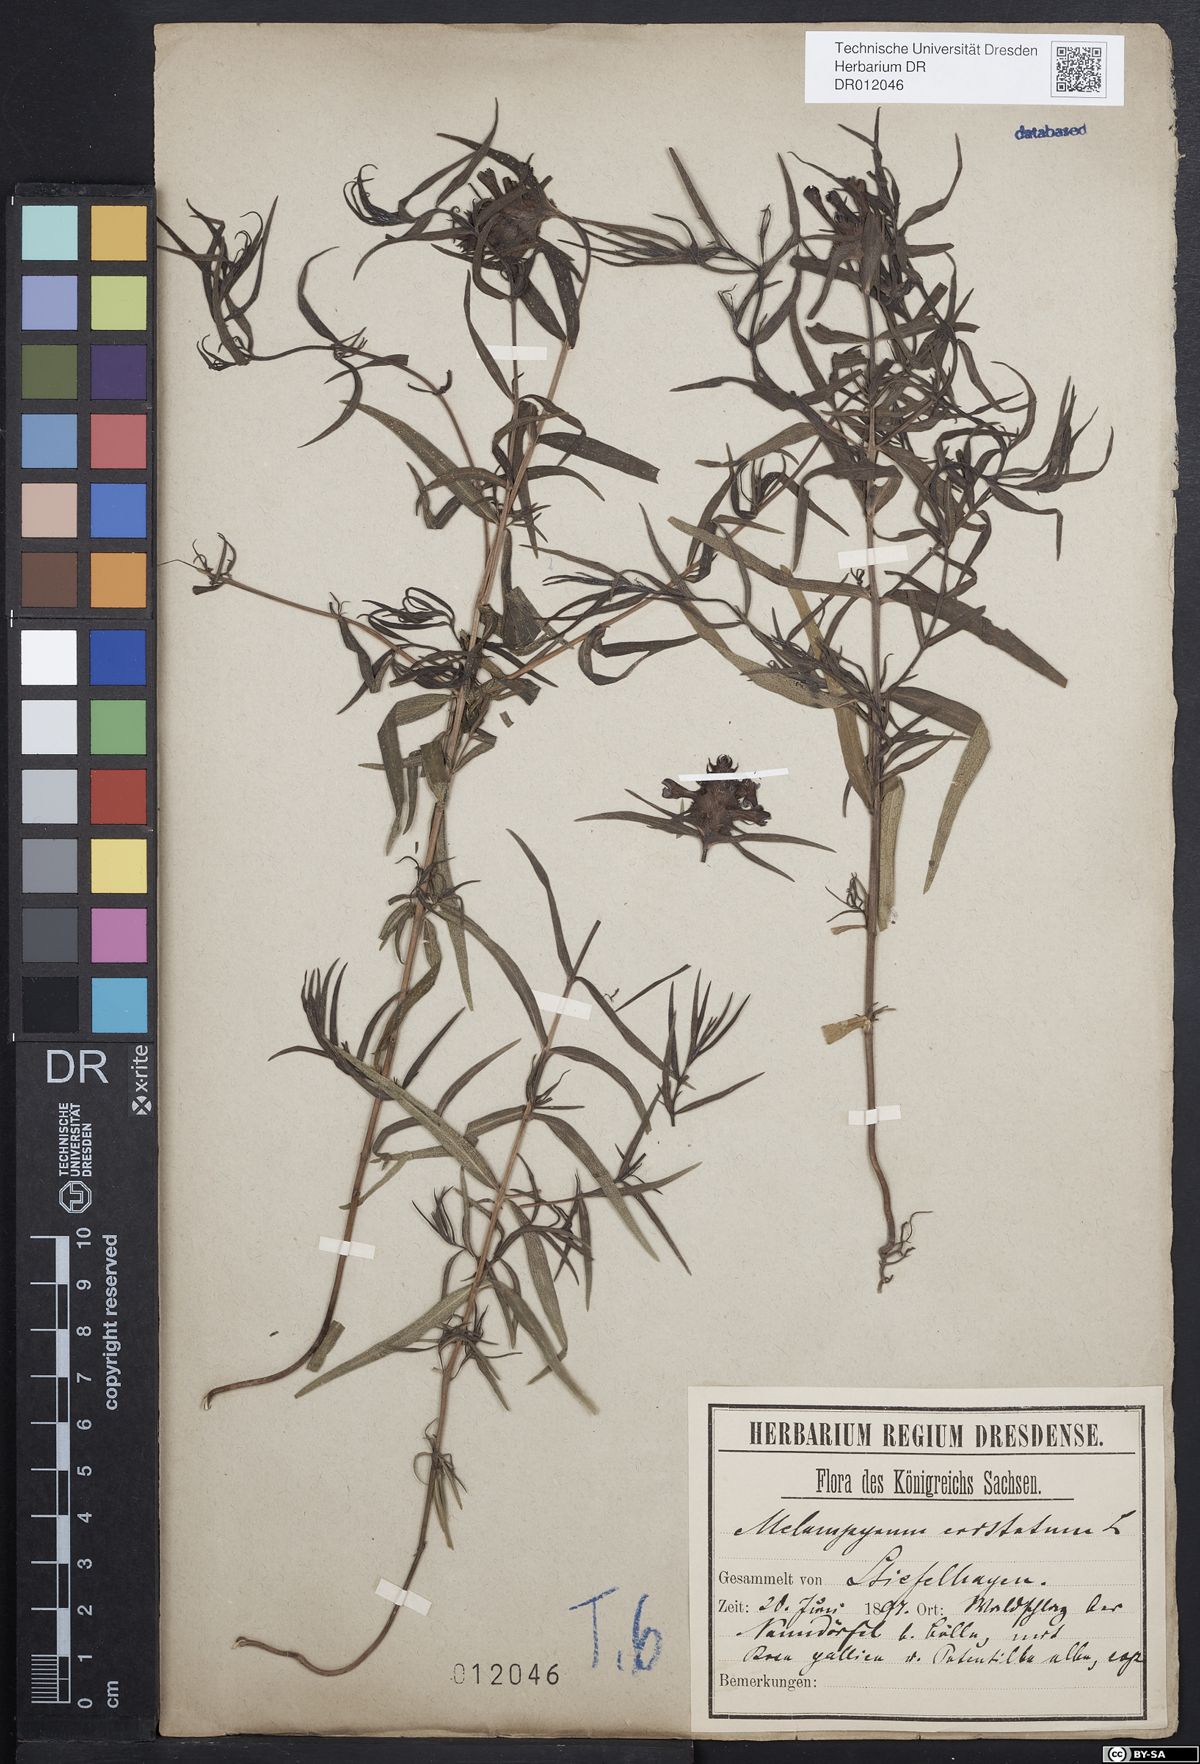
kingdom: Plantae
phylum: Tracheophyta
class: Magnoliopsida
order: Lamiales
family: Orobanchaceae
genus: Melampyrum
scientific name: Melampyrum cristatum
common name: Crested cow-wheat
